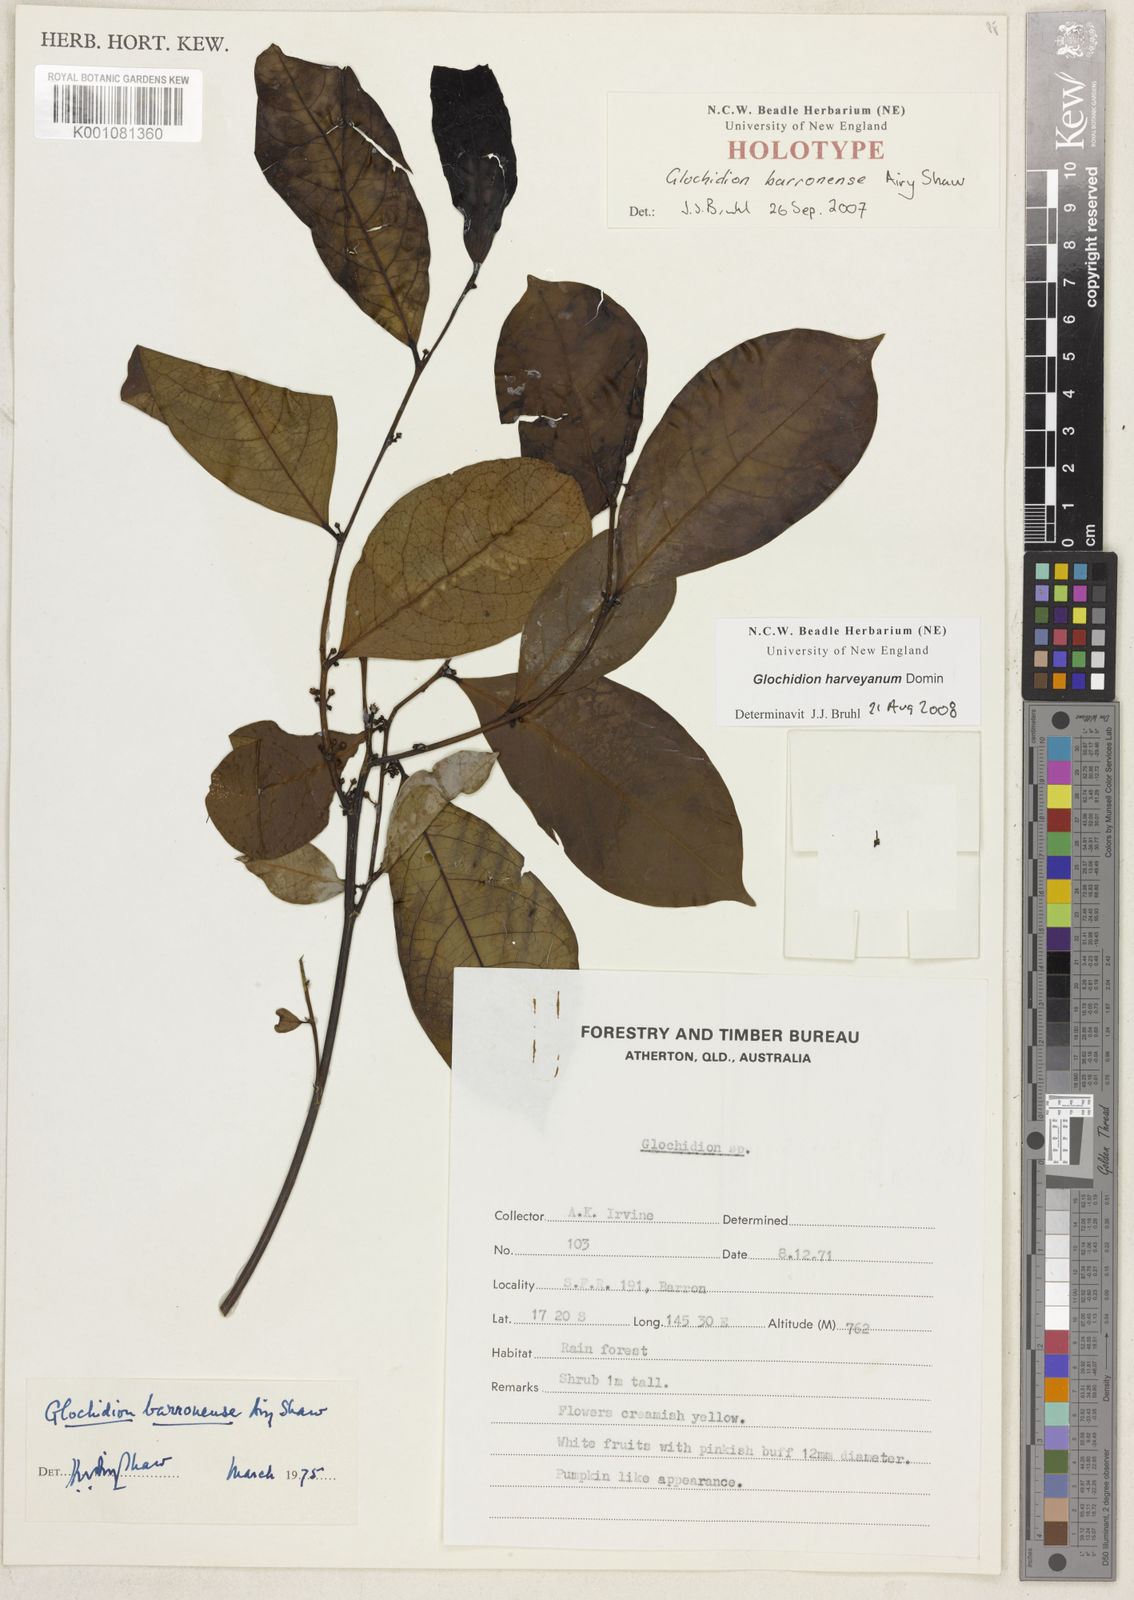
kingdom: Plantae
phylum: Tracheophyta
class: Magnoliopsida
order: Malpighiales
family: Phyllanthaceae
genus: Glochidion
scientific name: Glochidion harveyanum
